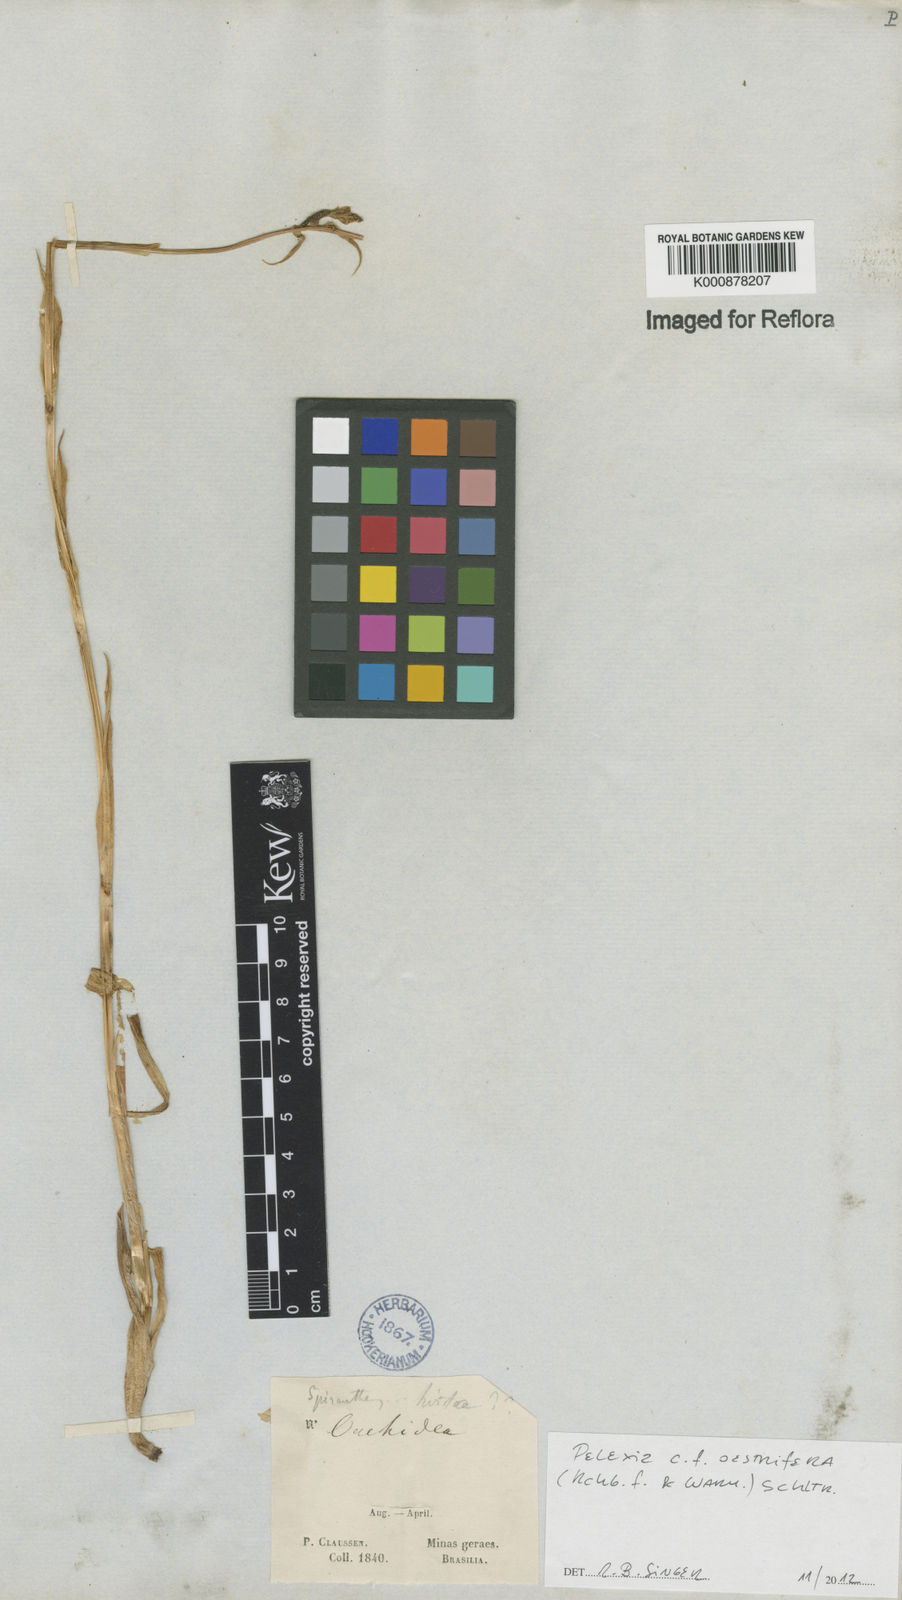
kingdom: Plantae
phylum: Tracheophyta
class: Liliopsida
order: Asparagales
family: Orchidaceae
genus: Pelexia
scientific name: Pelexia oestrifera
